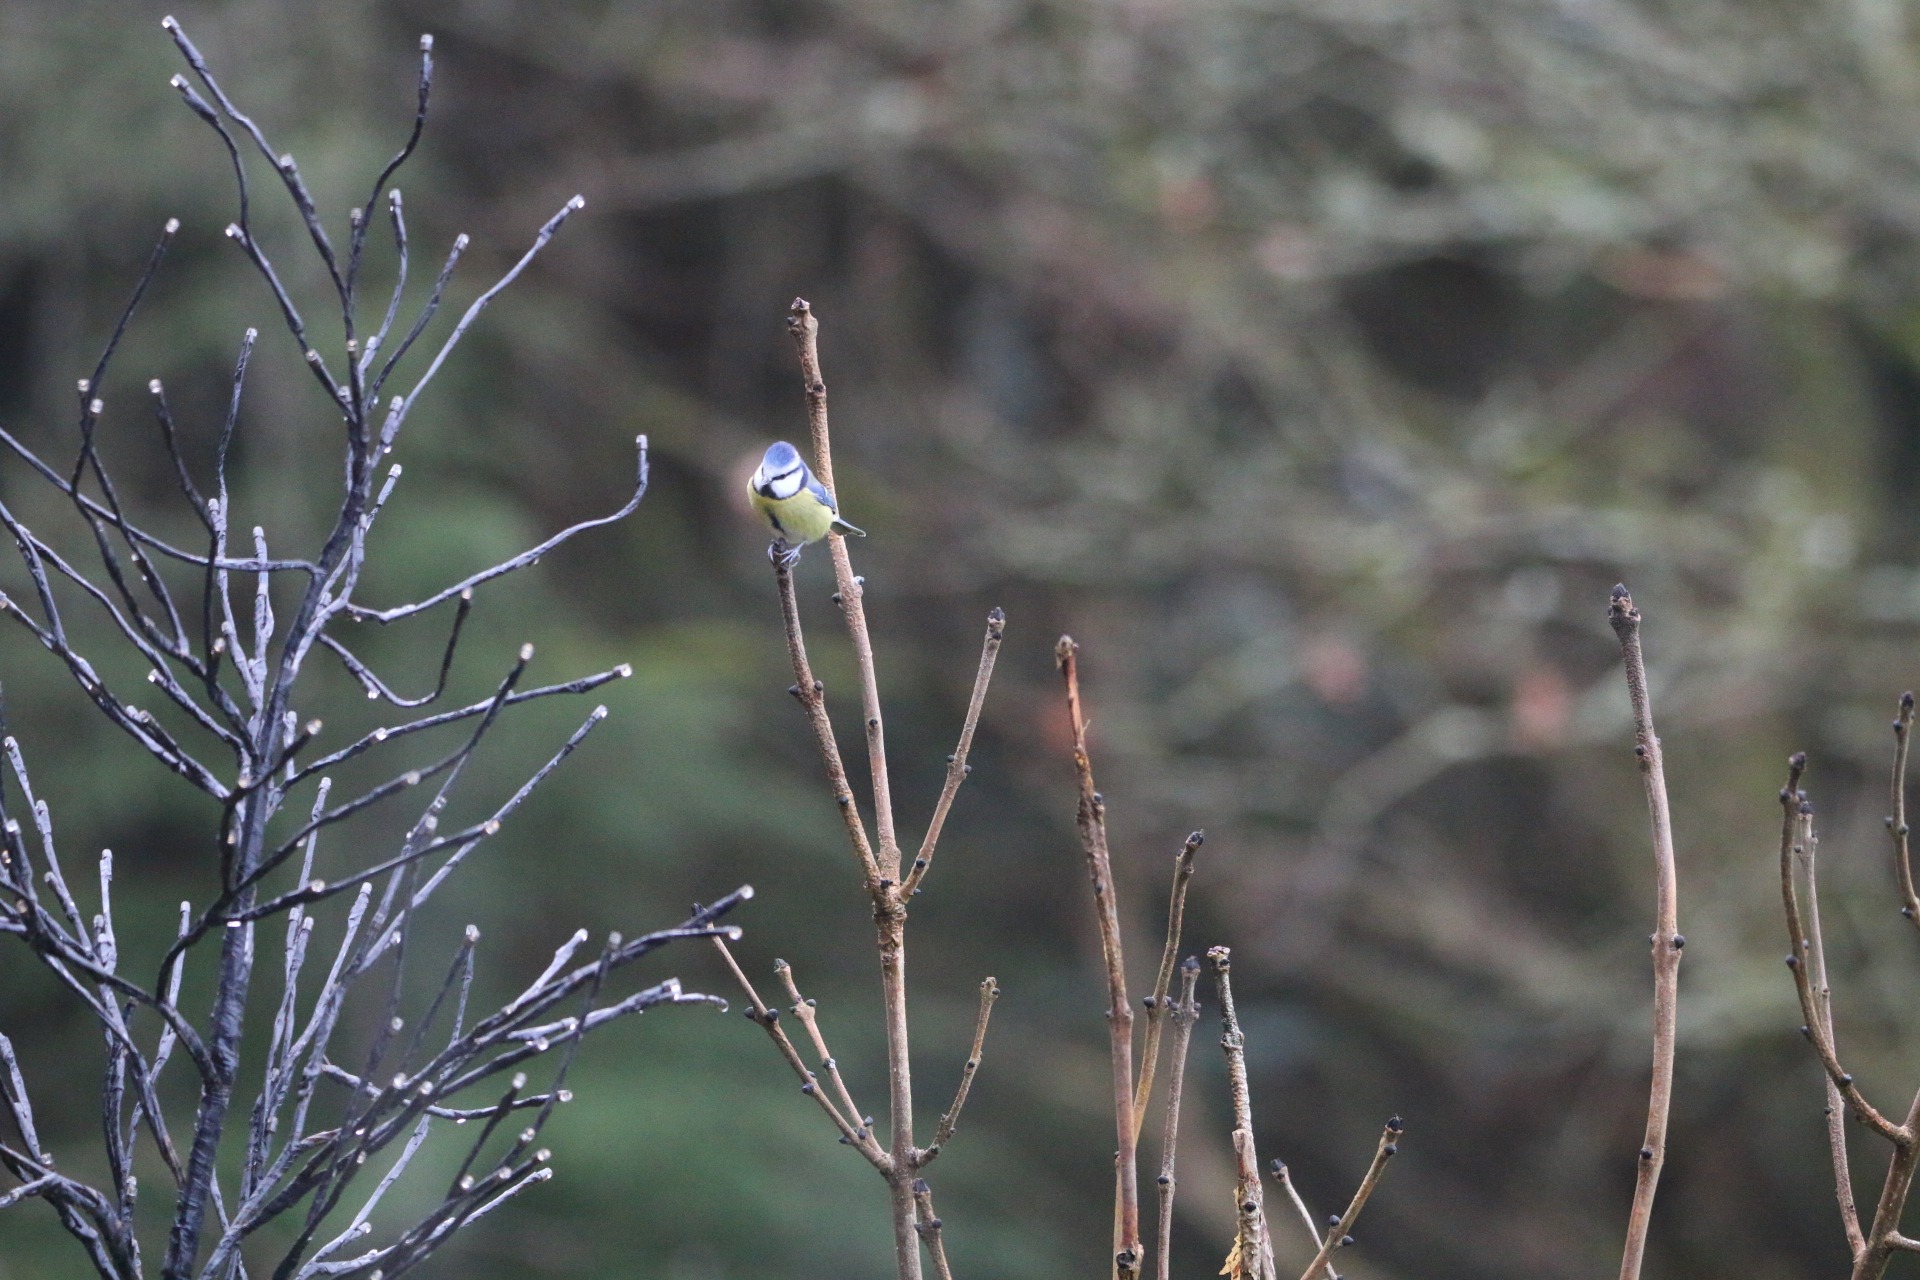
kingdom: Animalia
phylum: Chordata
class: Aves
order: Passeriformes
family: Paridae
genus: Cyanistes
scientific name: Cyanistes caeruleus
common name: Blåmejse
